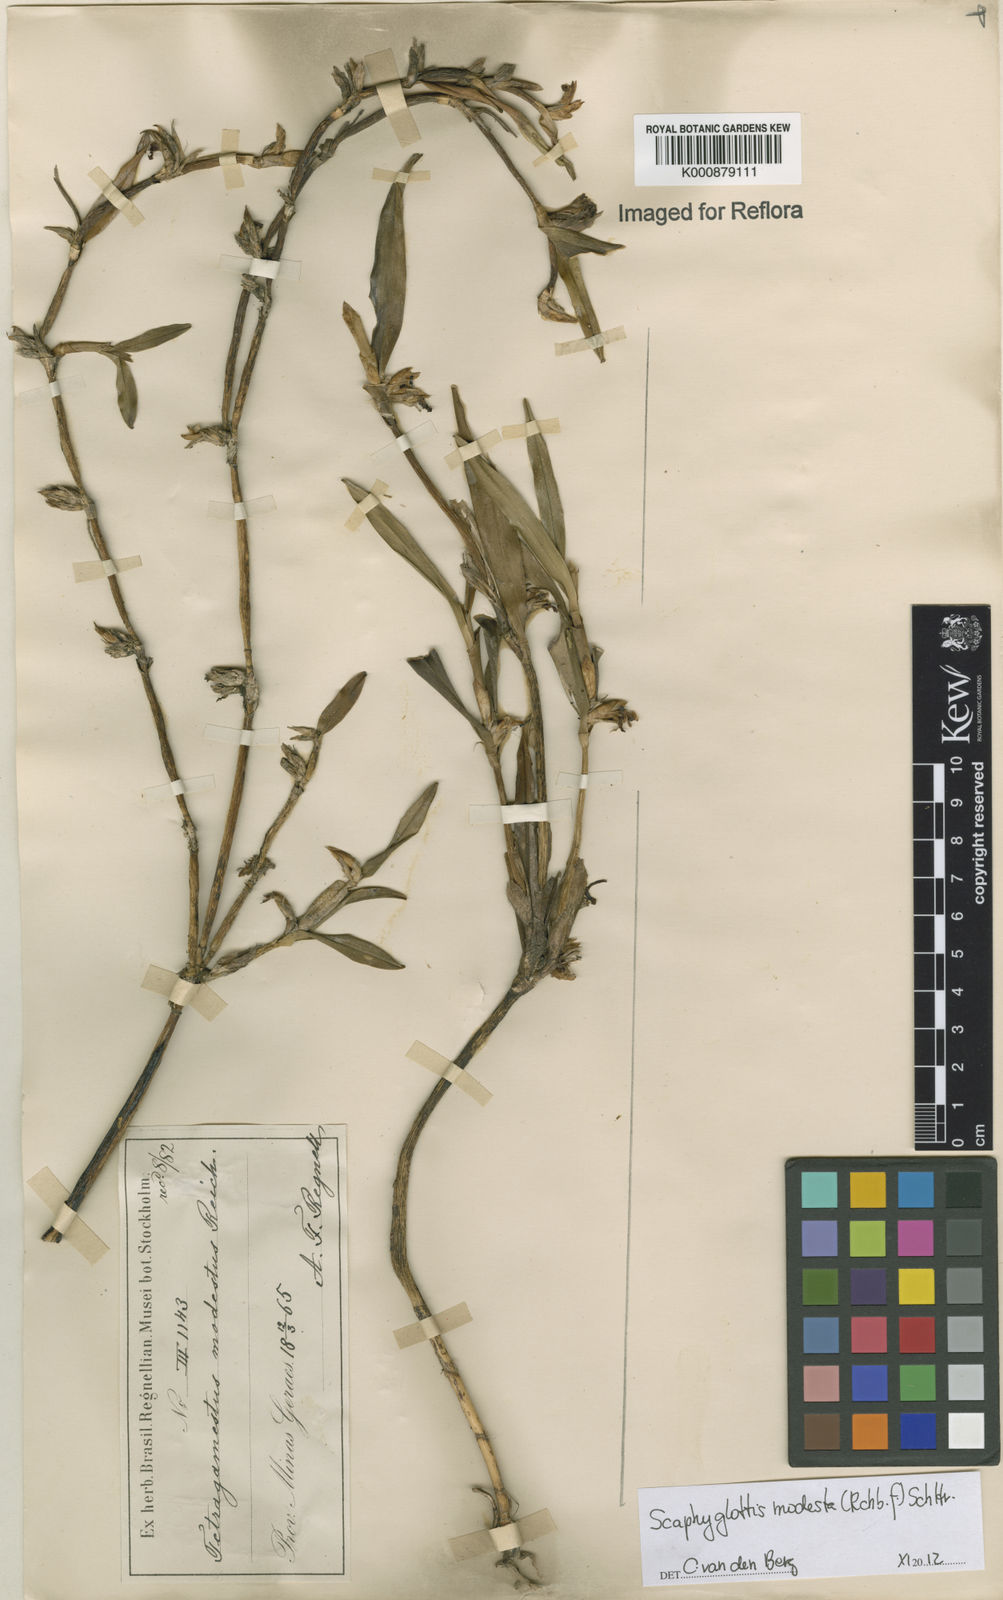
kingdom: Plantae
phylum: Tracheophyta
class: Liliopsida
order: Asparagales
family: Orchidaceae
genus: Scaphyglottis
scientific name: Scaphyglottis modesta
